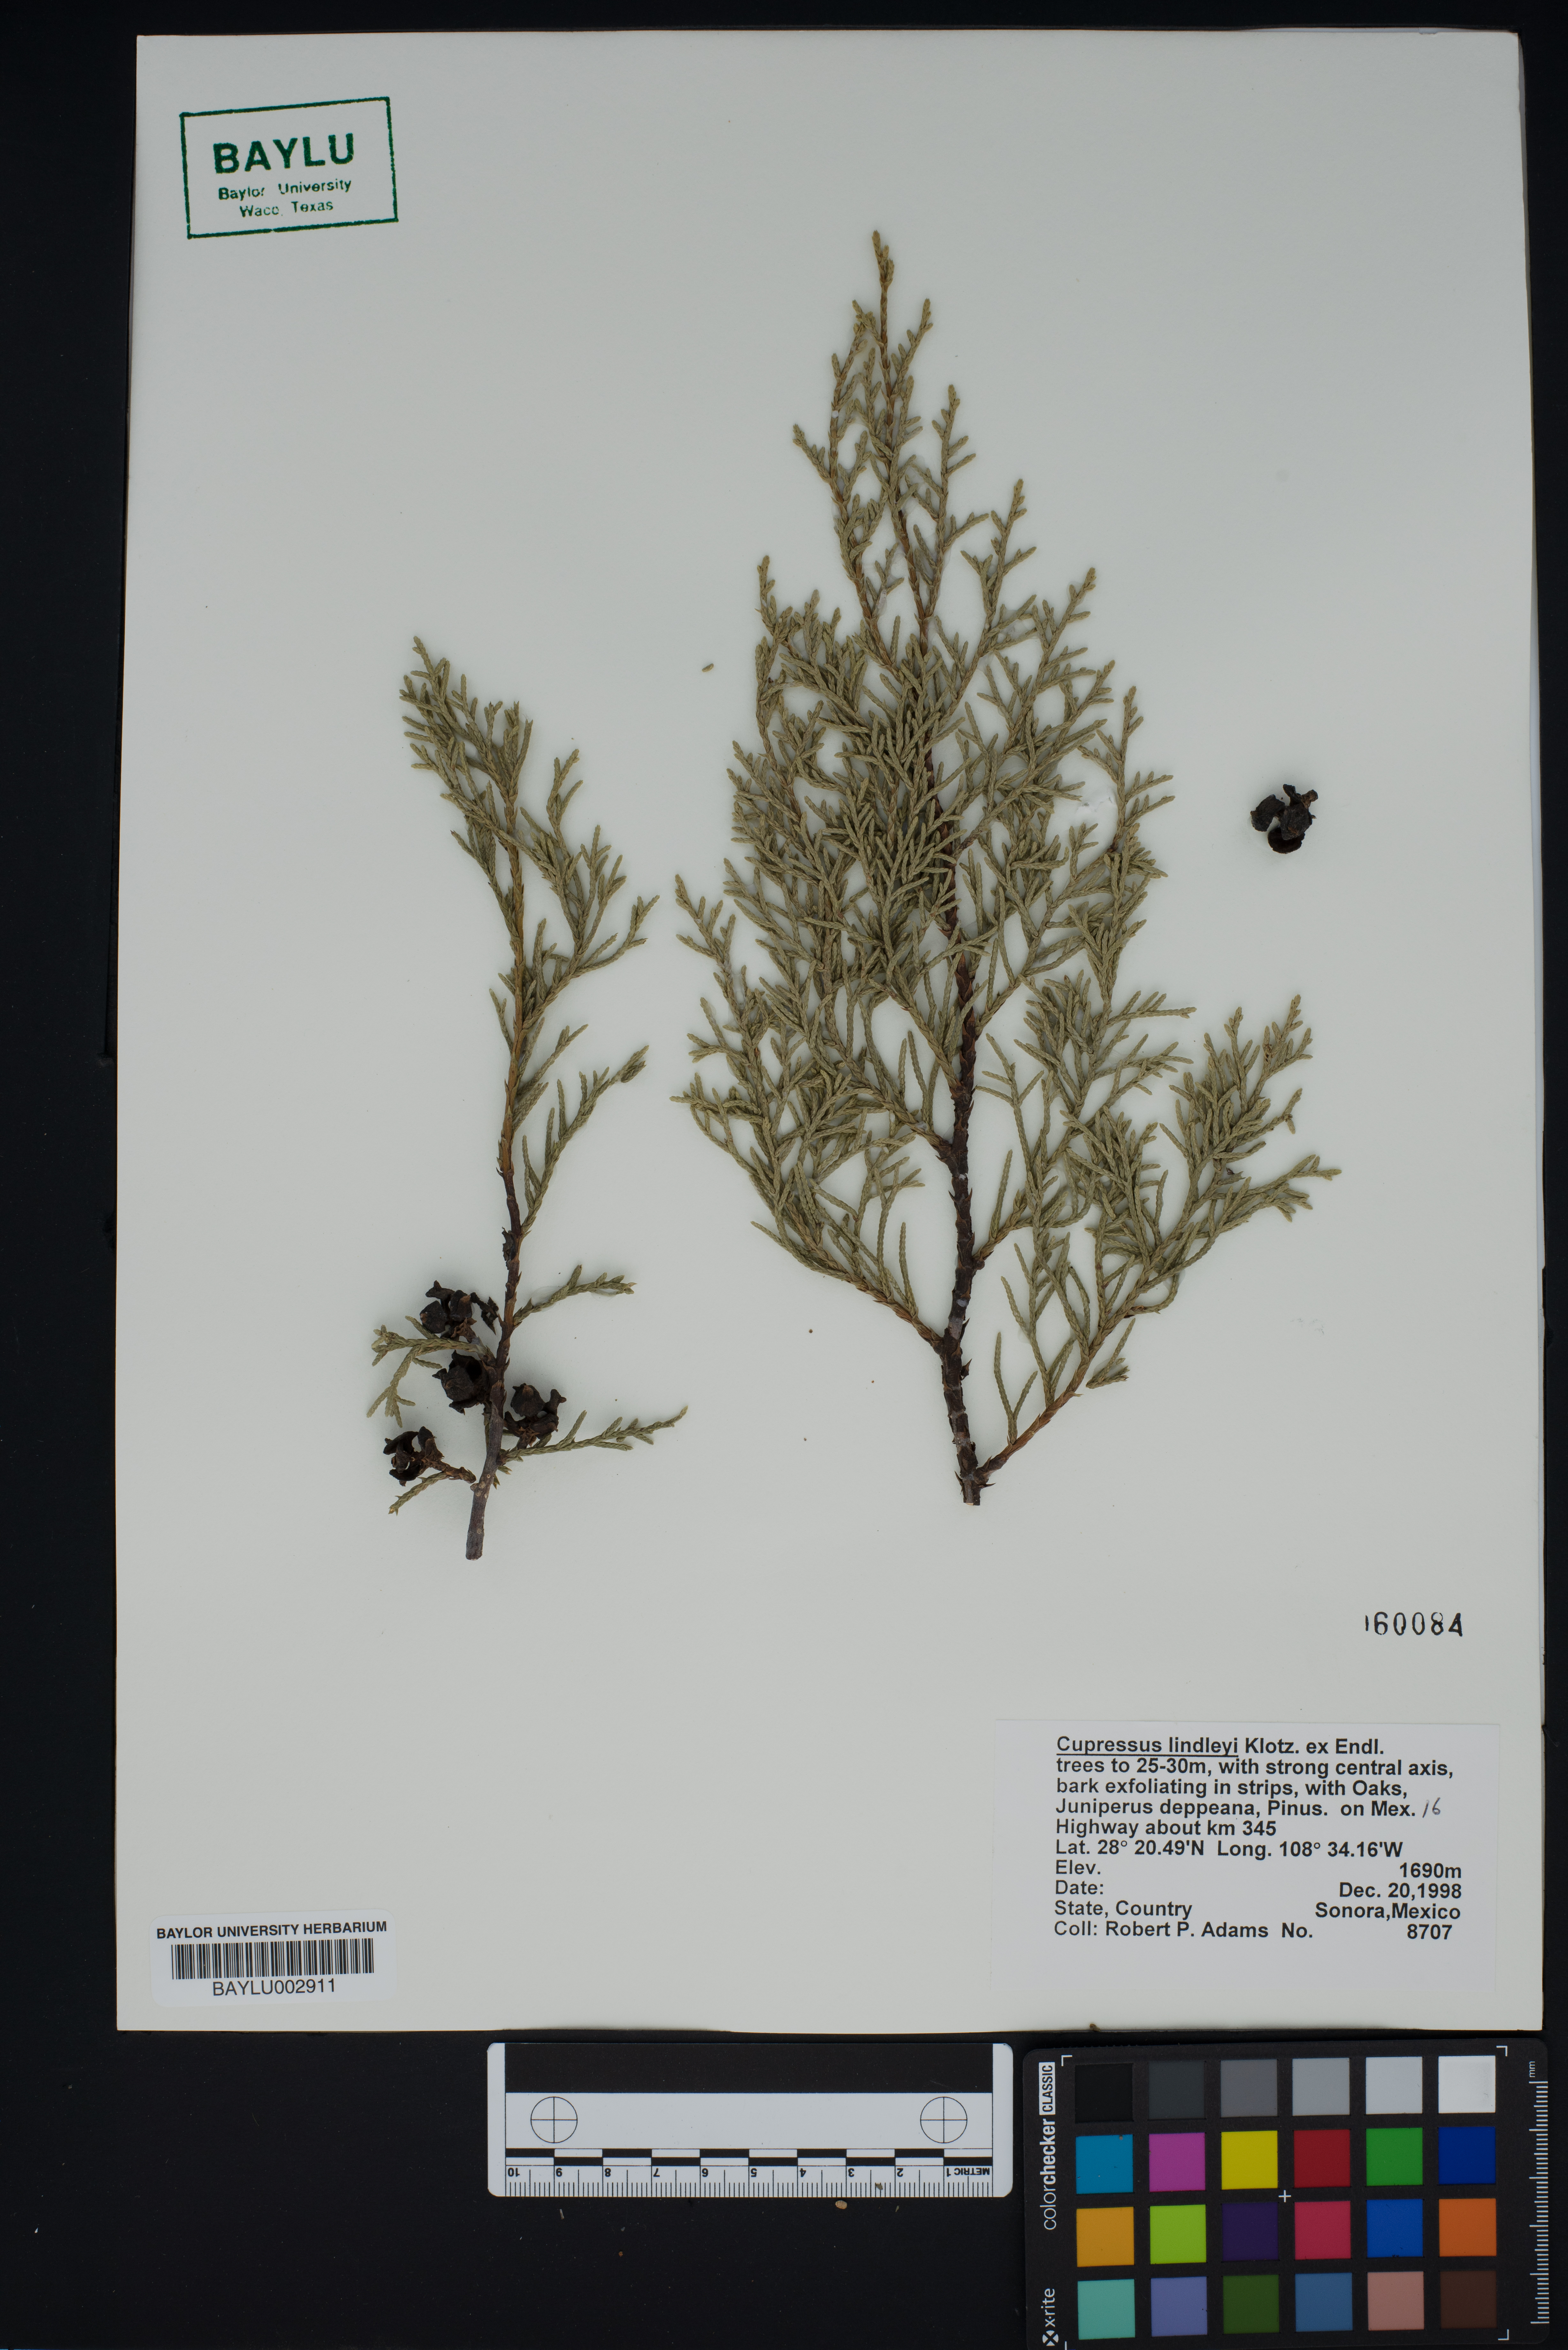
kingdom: Plantae
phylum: Tracheophyta
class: Pinopsida
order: Pinales
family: Cupressaceae
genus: Cupressus
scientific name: Cupressus lusitanica
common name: Mexican cypress
